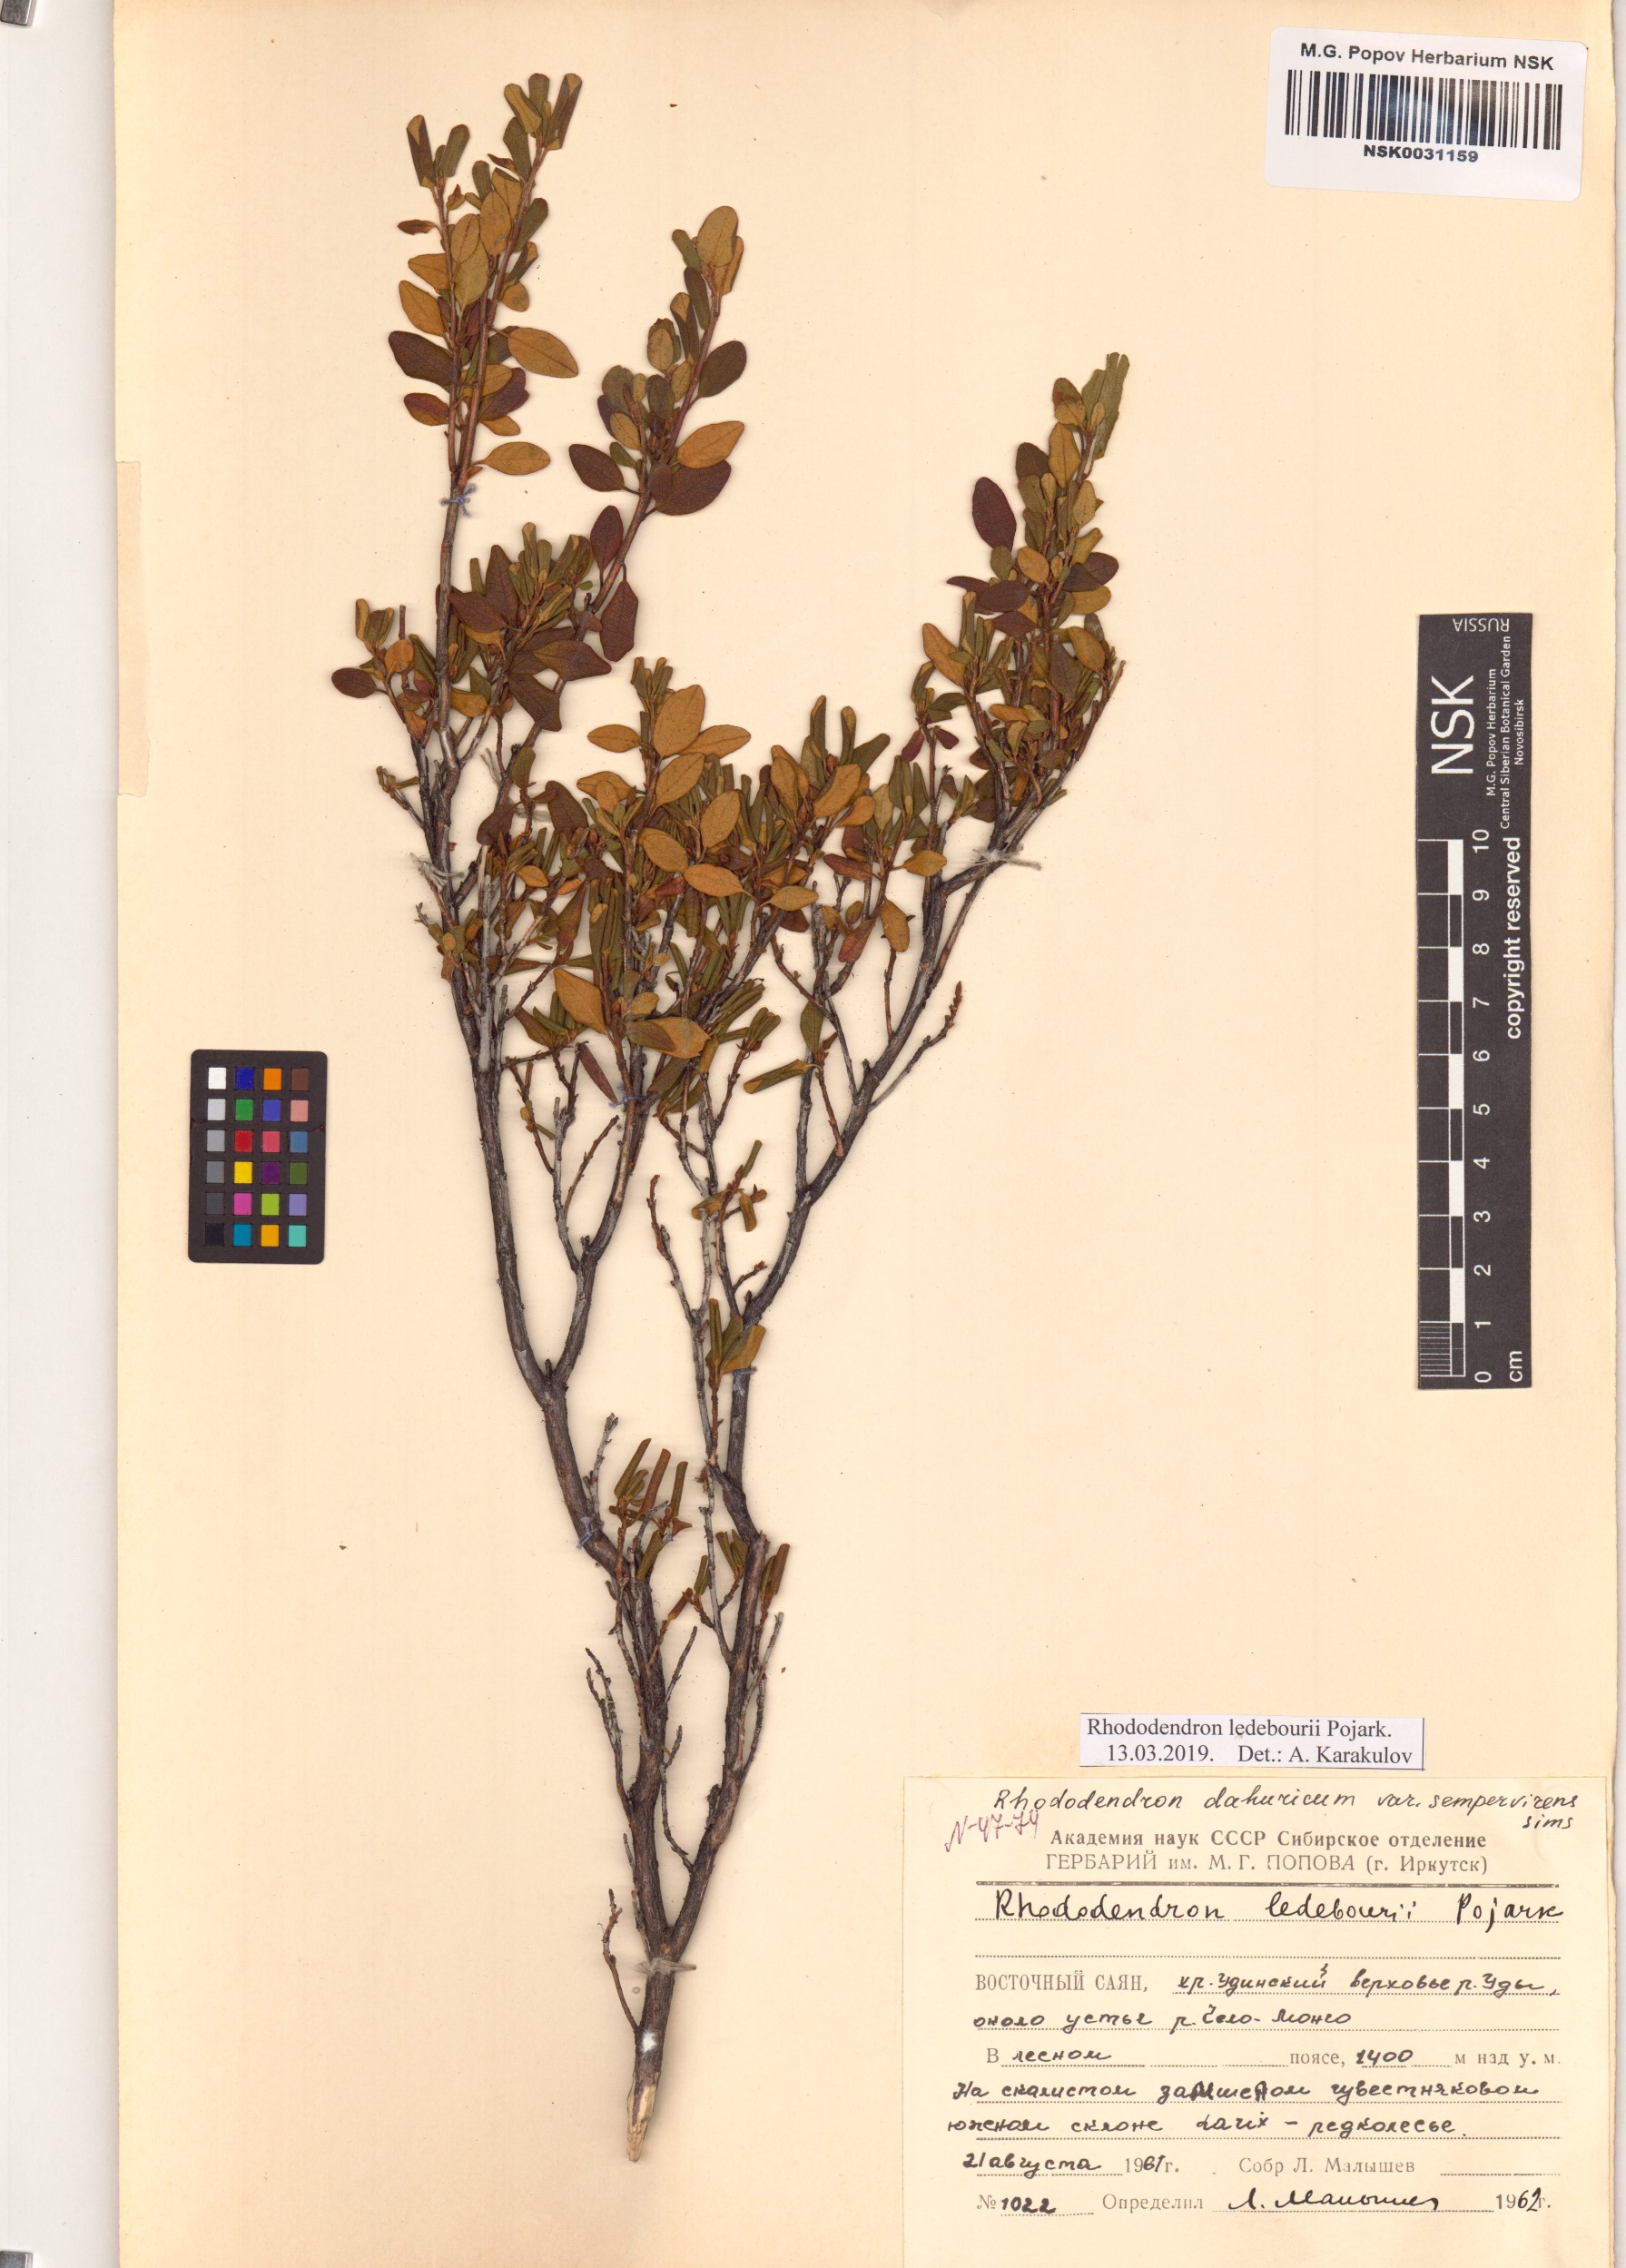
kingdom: Plantae
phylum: Tracheophyta
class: Magnoliopsida
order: Ericales
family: Ericaceae
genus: Rhododendron
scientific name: Rhododendron dauricum
